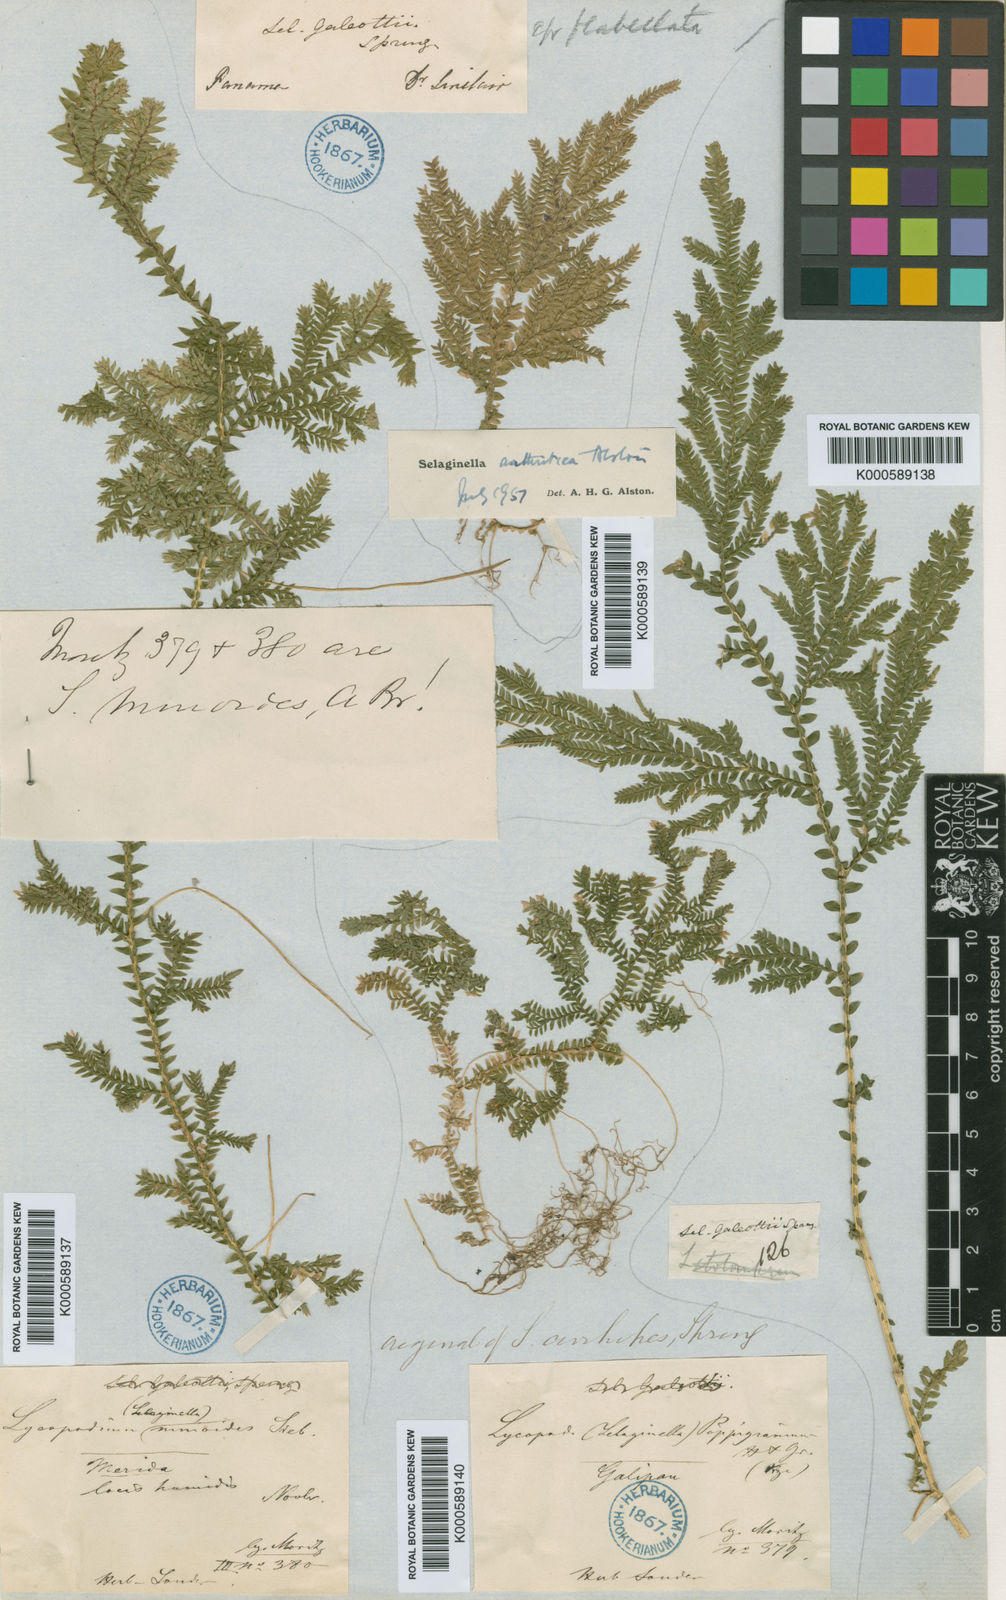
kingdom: Plantae
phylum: Tracheophyta
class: Lycopodiopsida
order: Selaginellales
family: Selaginellaceae
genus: Selaginella
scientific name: Selaginella diffusa
